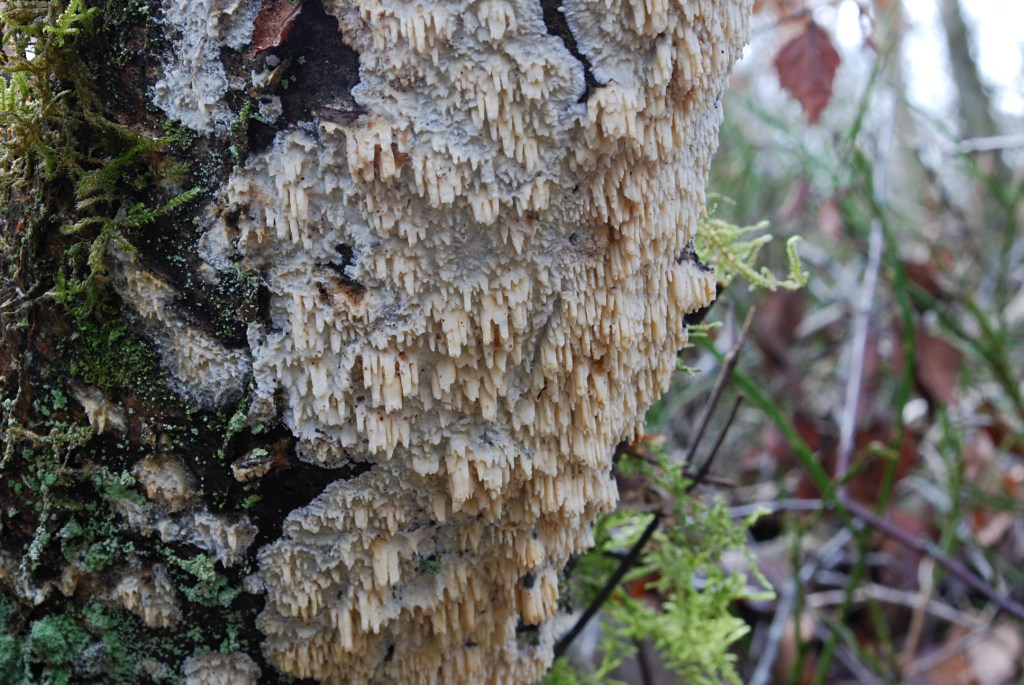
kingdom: Fungi
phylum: Basidiomycota
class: Agaricomycetes
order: Hymenochaetales
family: Schizoporaceae
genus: Xylodon
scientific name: Xylodon radula
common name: grovtandet kalkskind
